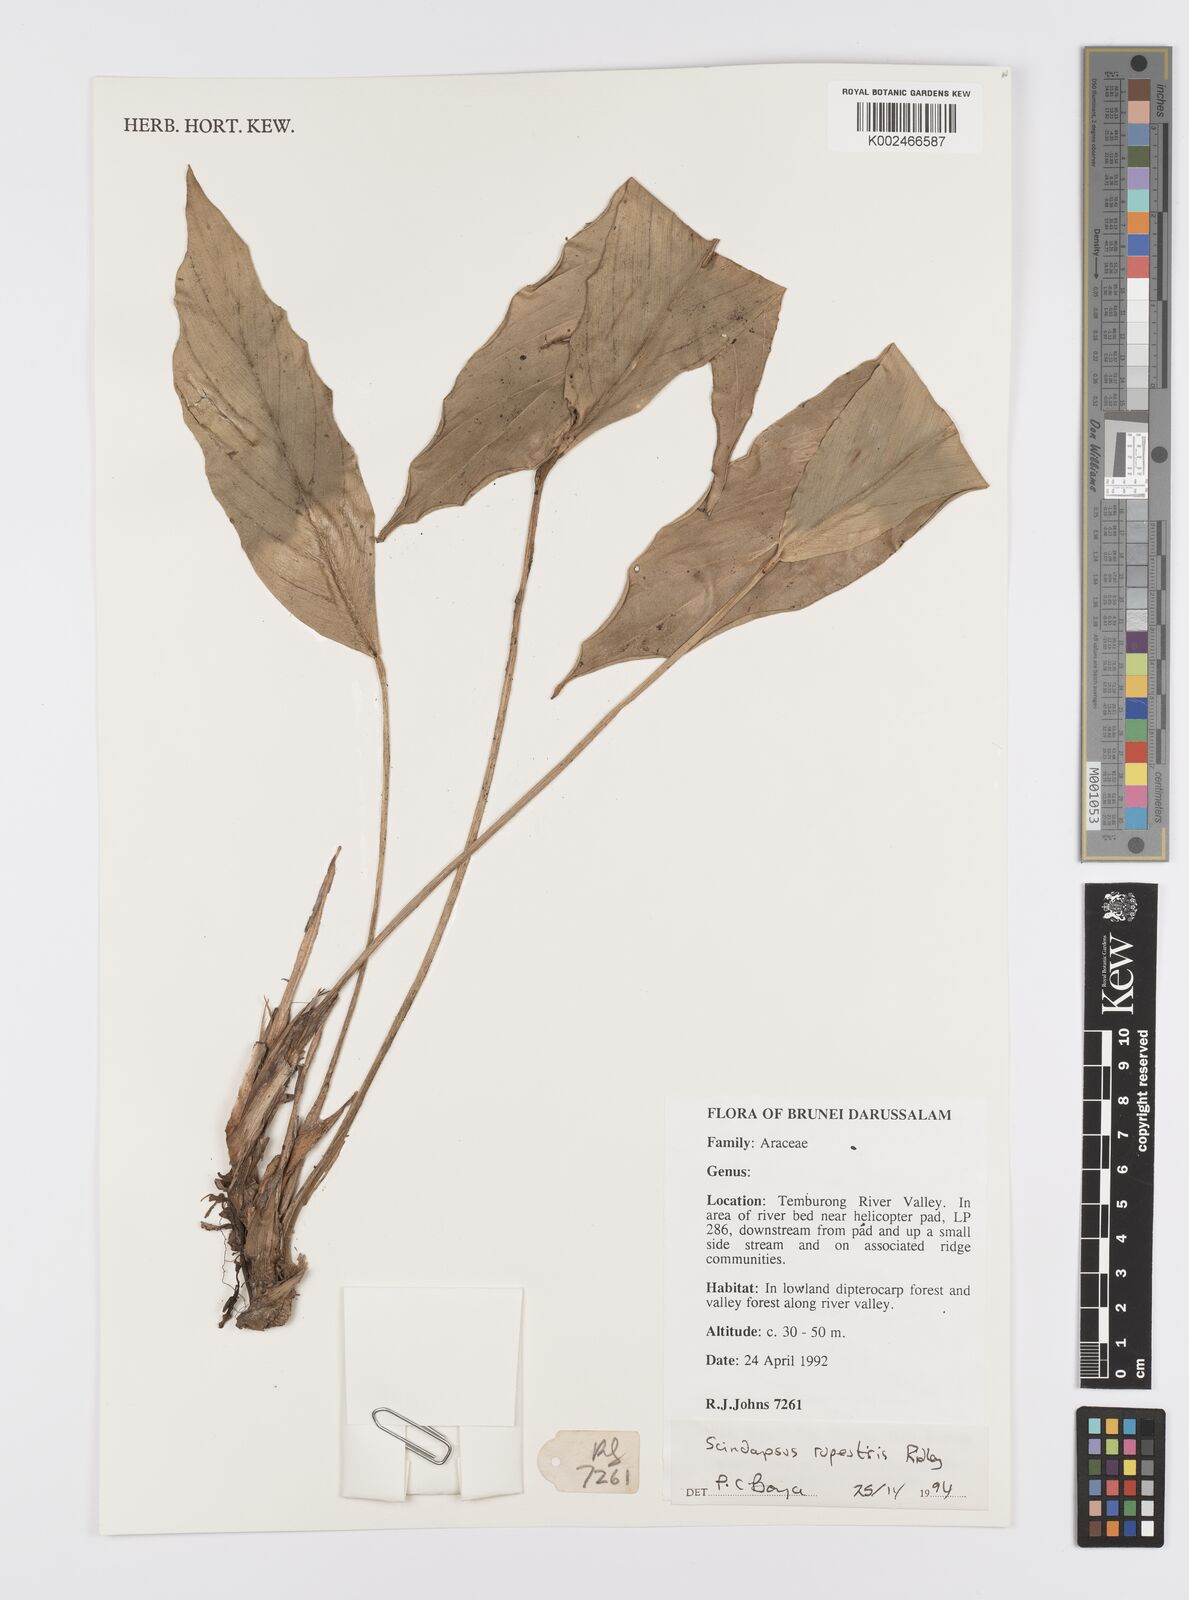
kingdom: Plantae
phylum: Tracheophyta
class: Liliopsida
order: Alismatales
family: Araceae
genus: Scindapsus
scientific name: Scindapsus sumatranus
